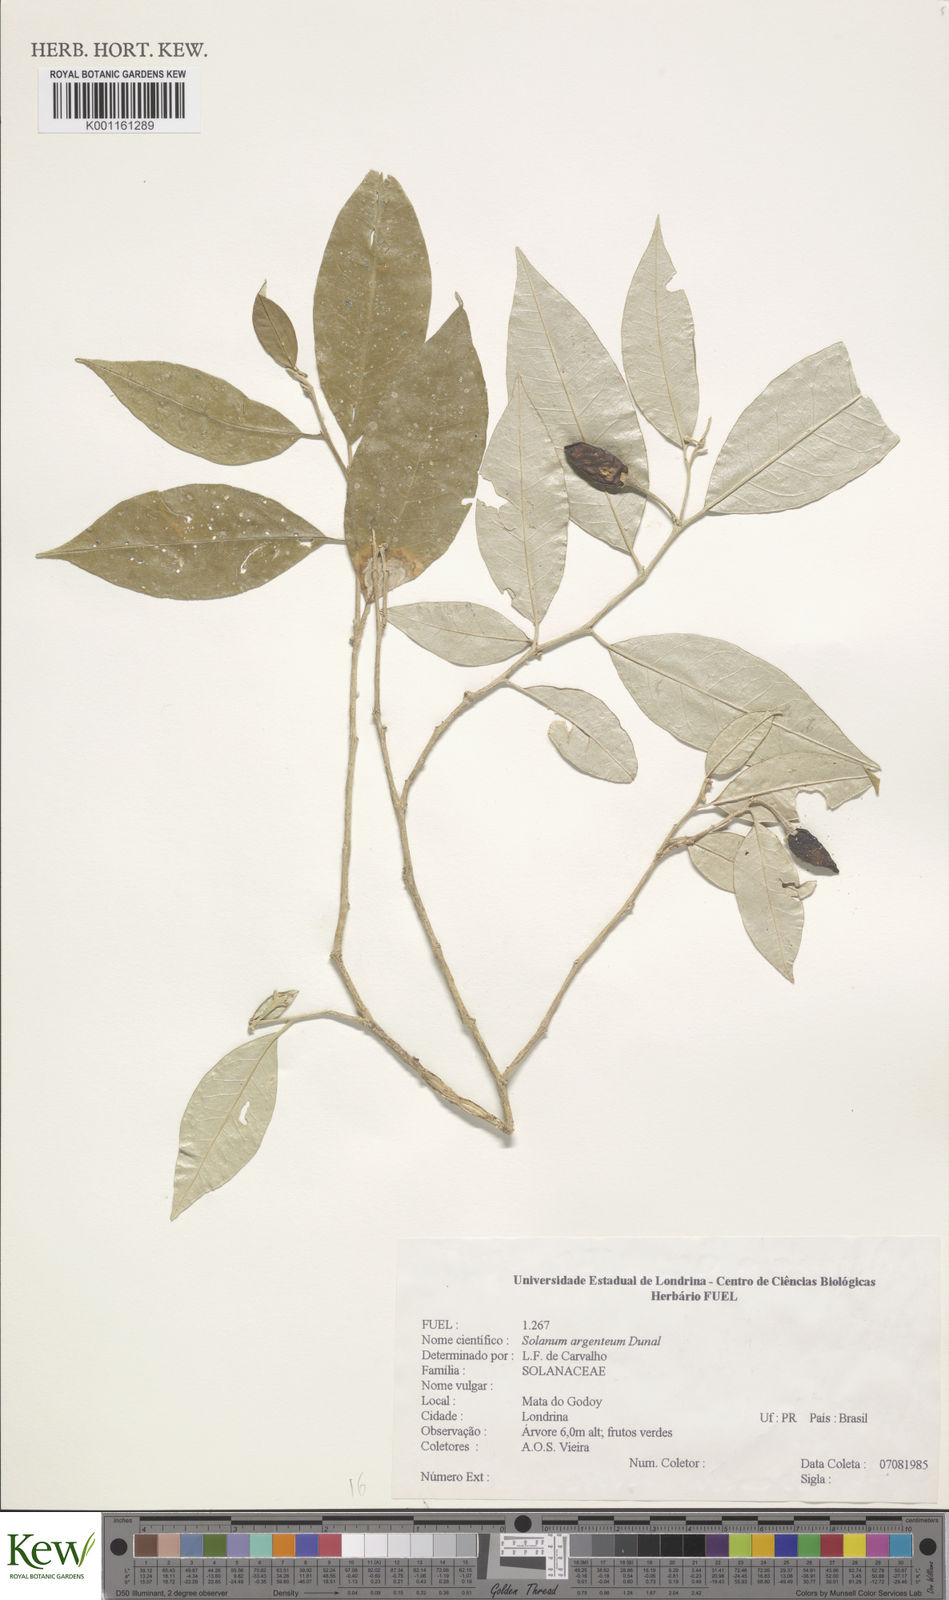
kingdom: Plantae
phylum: Tracheophyta
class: Magnoliopsida
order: Solanales
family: Solanaceae
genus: Solanum
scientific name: Solanum swartzianum
